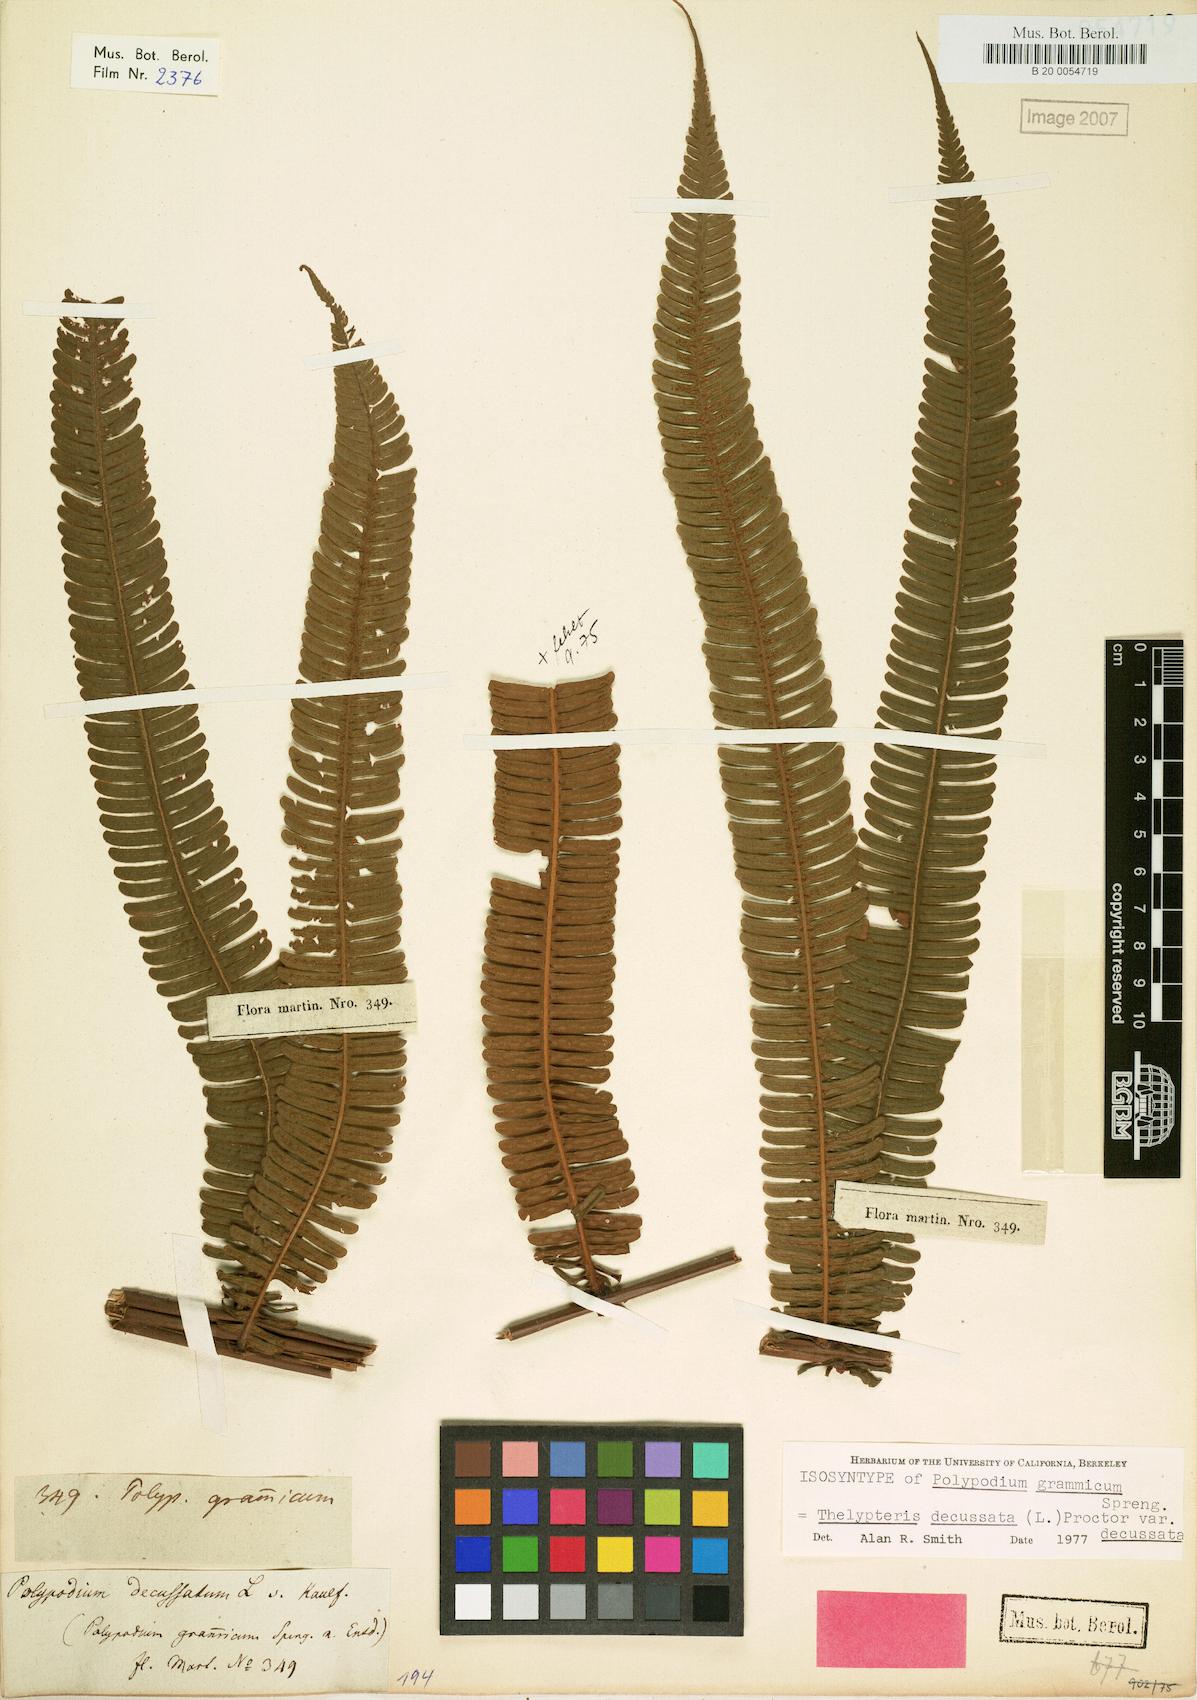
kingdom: Plantae
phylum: Tracheophyta
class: Polypodiopsida
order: Polypodiales
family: Thelypteridaceae
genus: Steiropteris
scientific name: Steiropteris decussata
